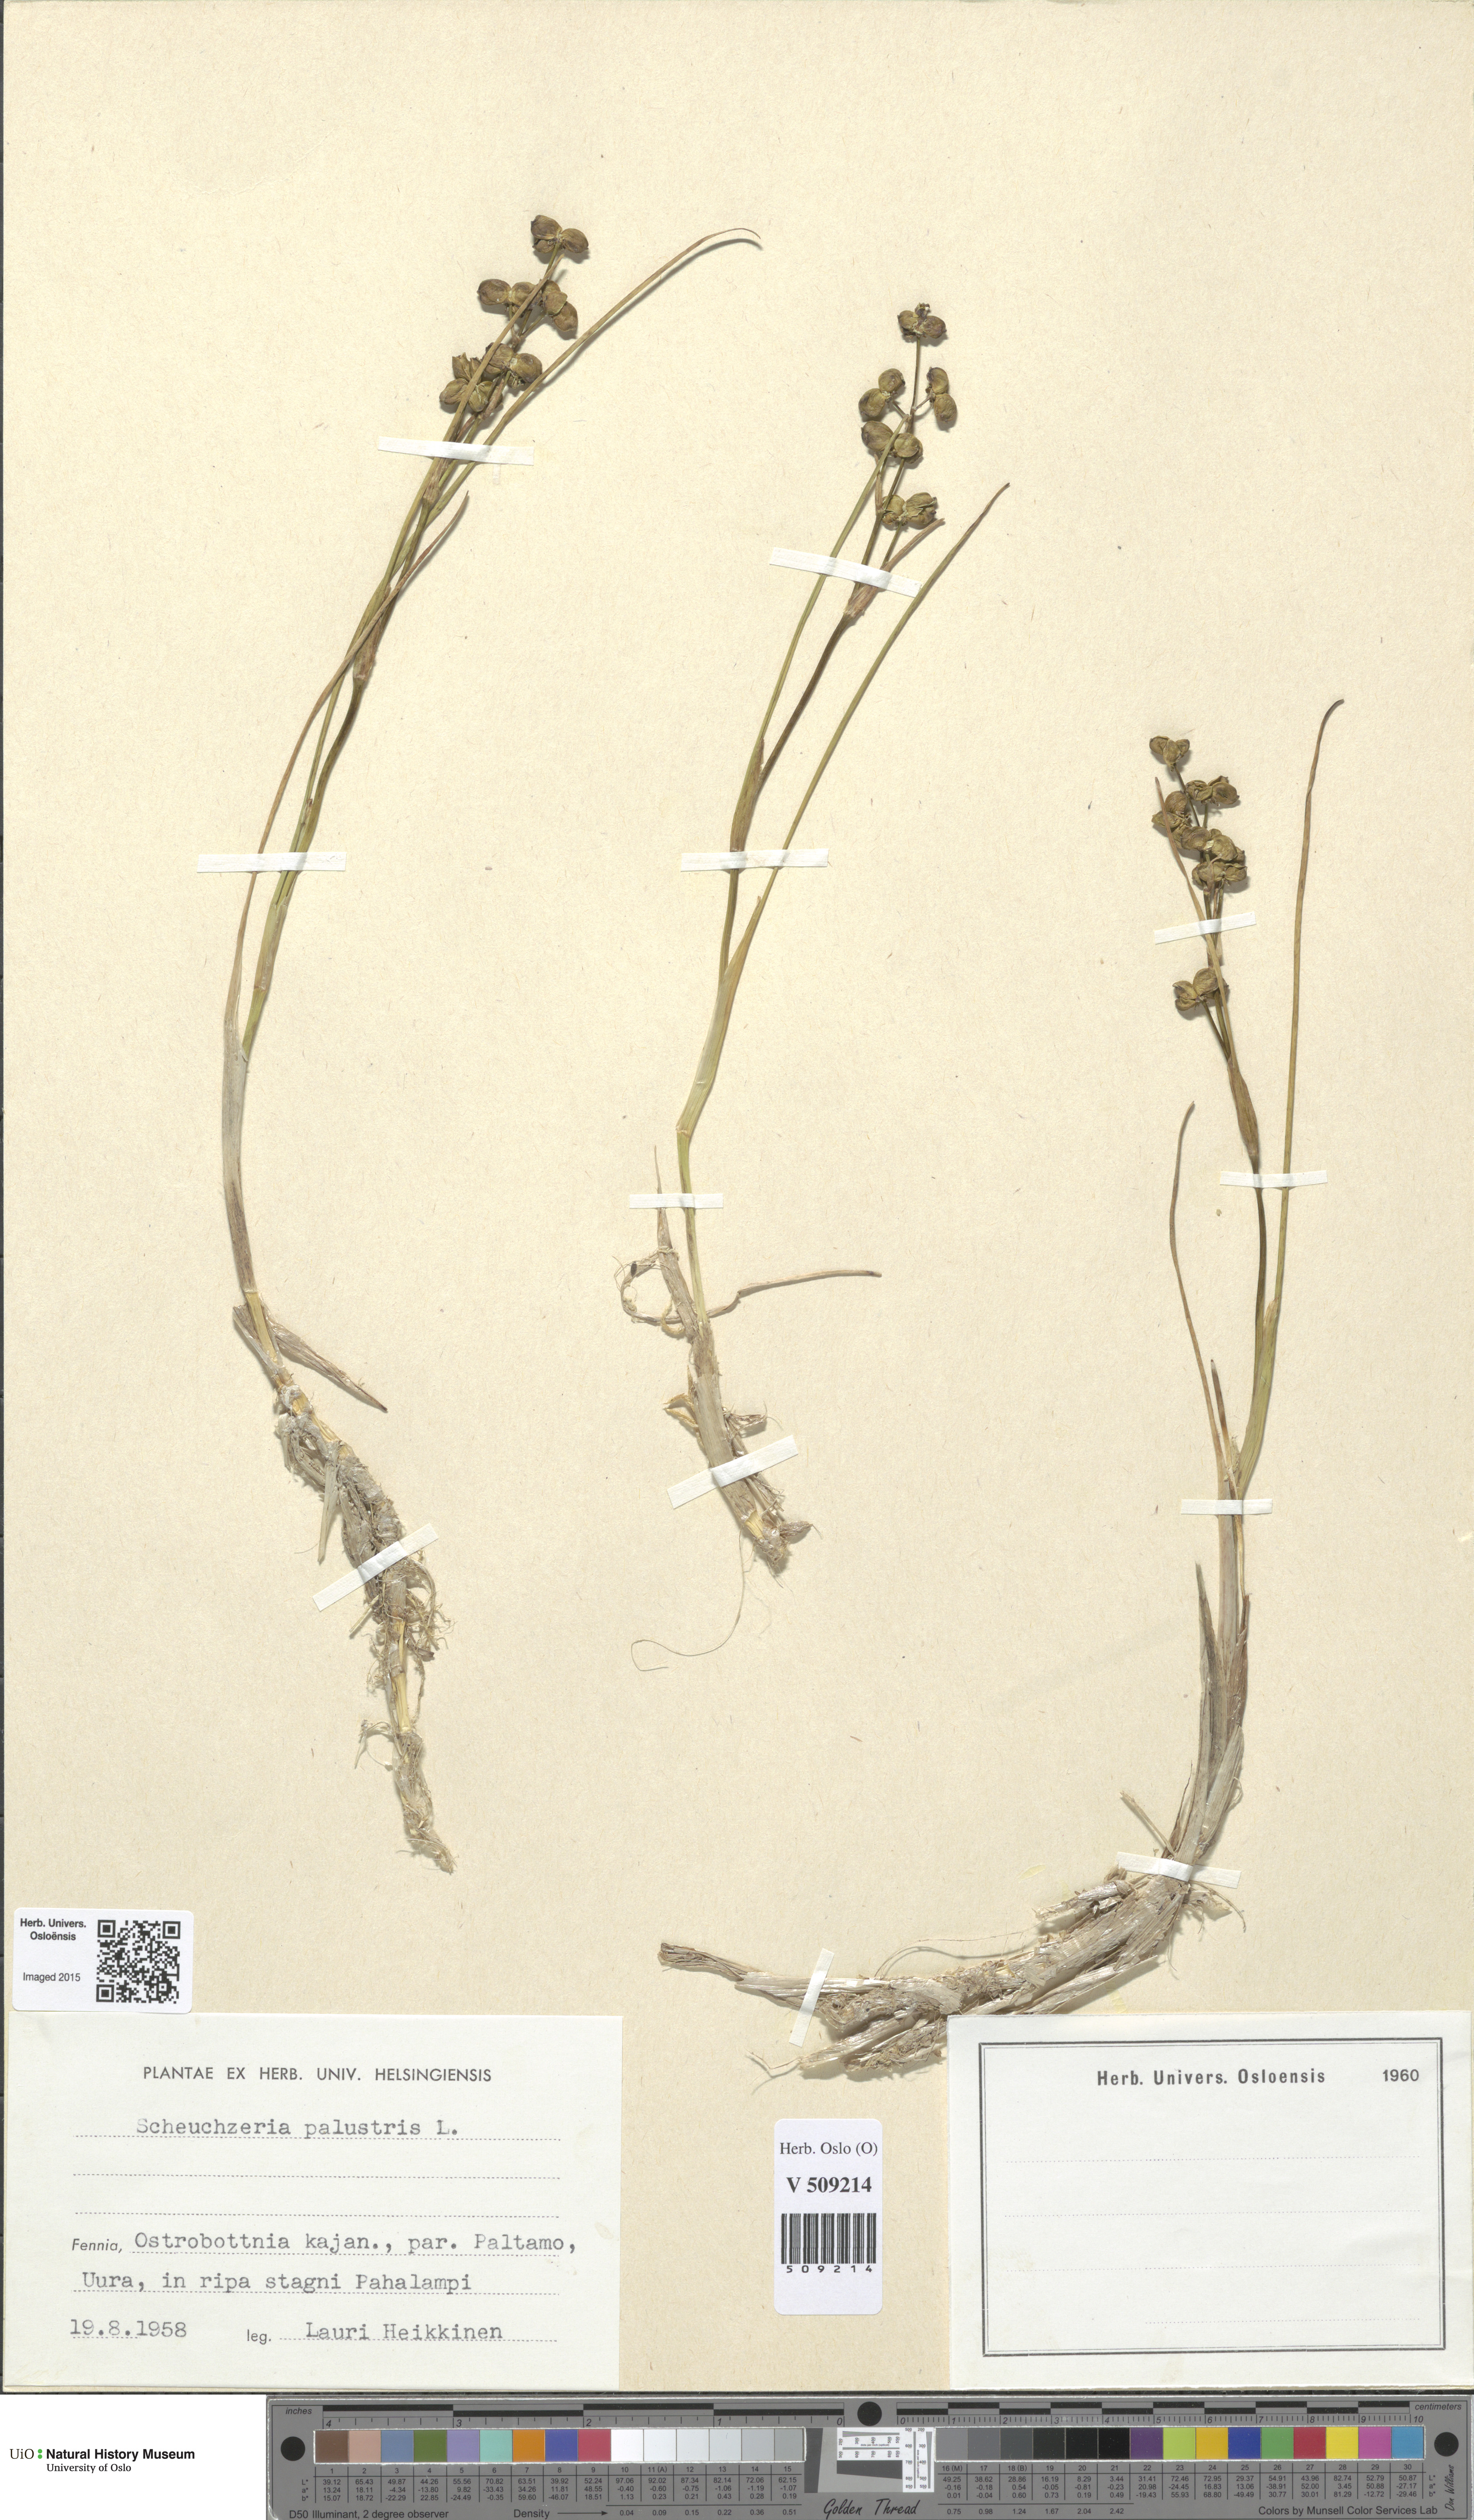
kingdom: Plantae
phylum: Tracheophyta
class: Liliopsida
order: Alismatales
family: Scheuchzeriaceae
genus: Scheuchzeria
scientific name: Scheuchzeria palustris
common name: Rannoch-rush
